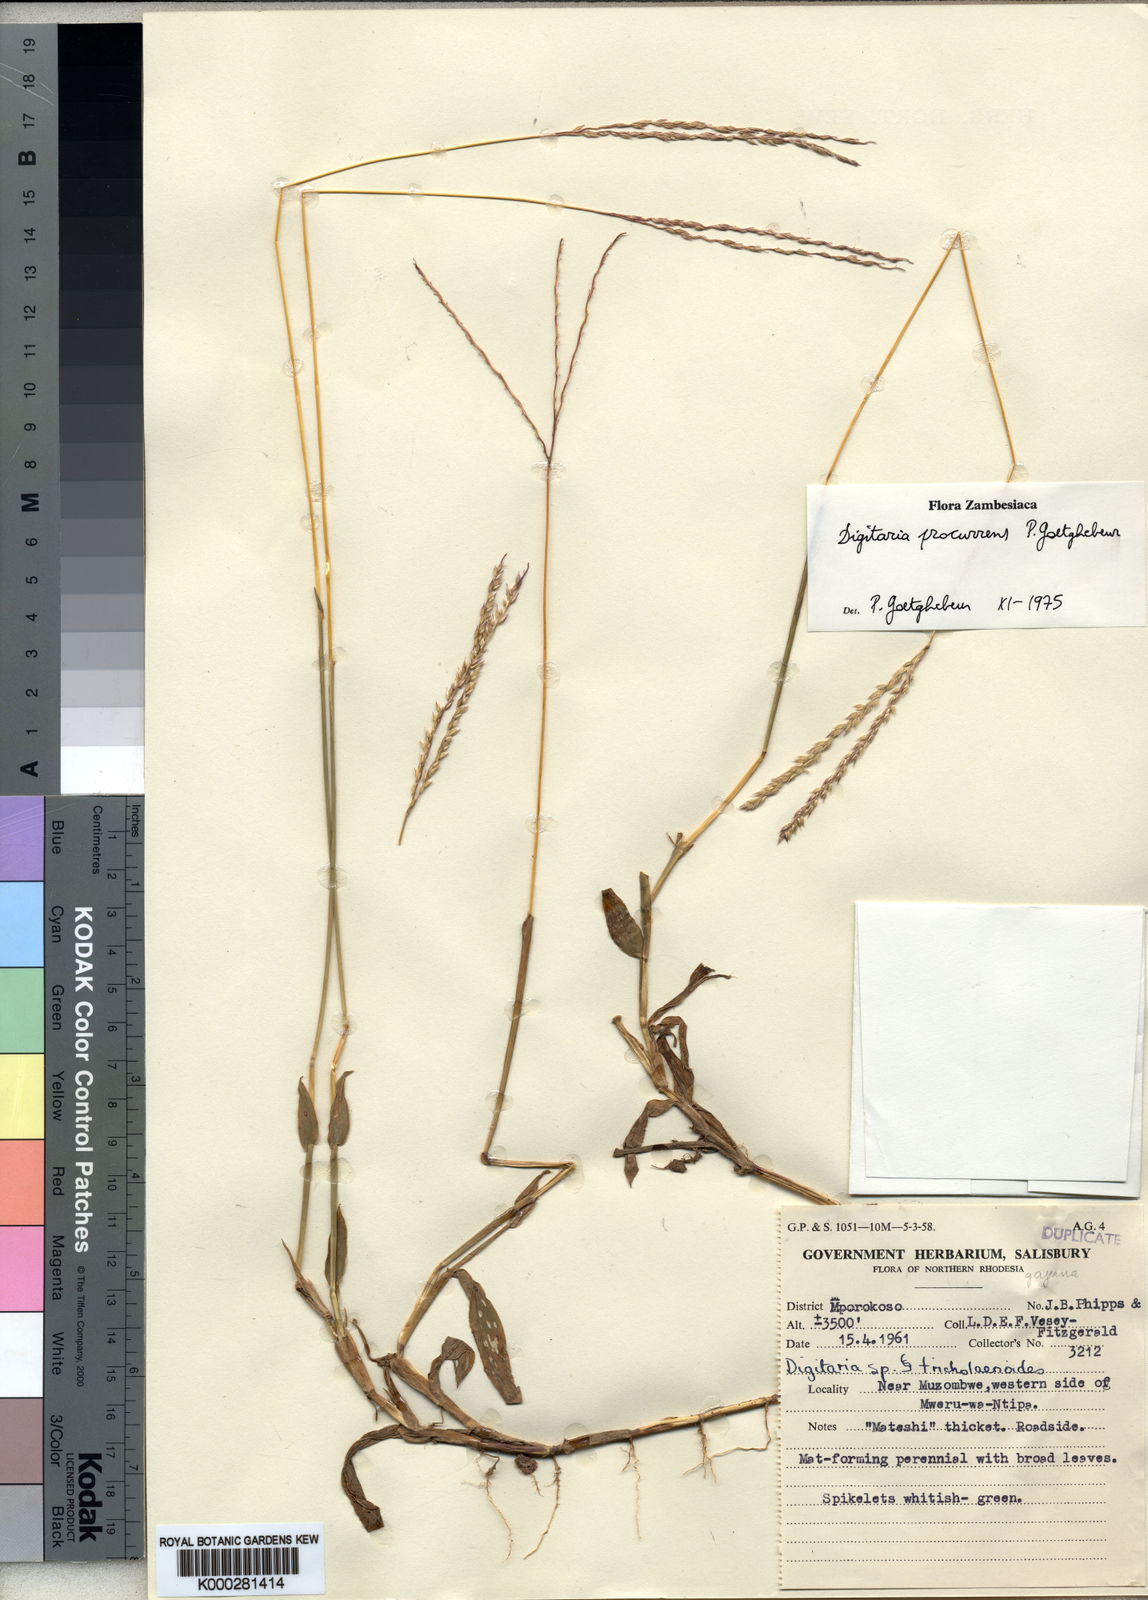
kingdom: Plantae
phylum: Tracheophyta
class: Liliopsida
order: Poales
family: Poaceae
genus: Digitaria
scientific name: Digitaria procurrens
